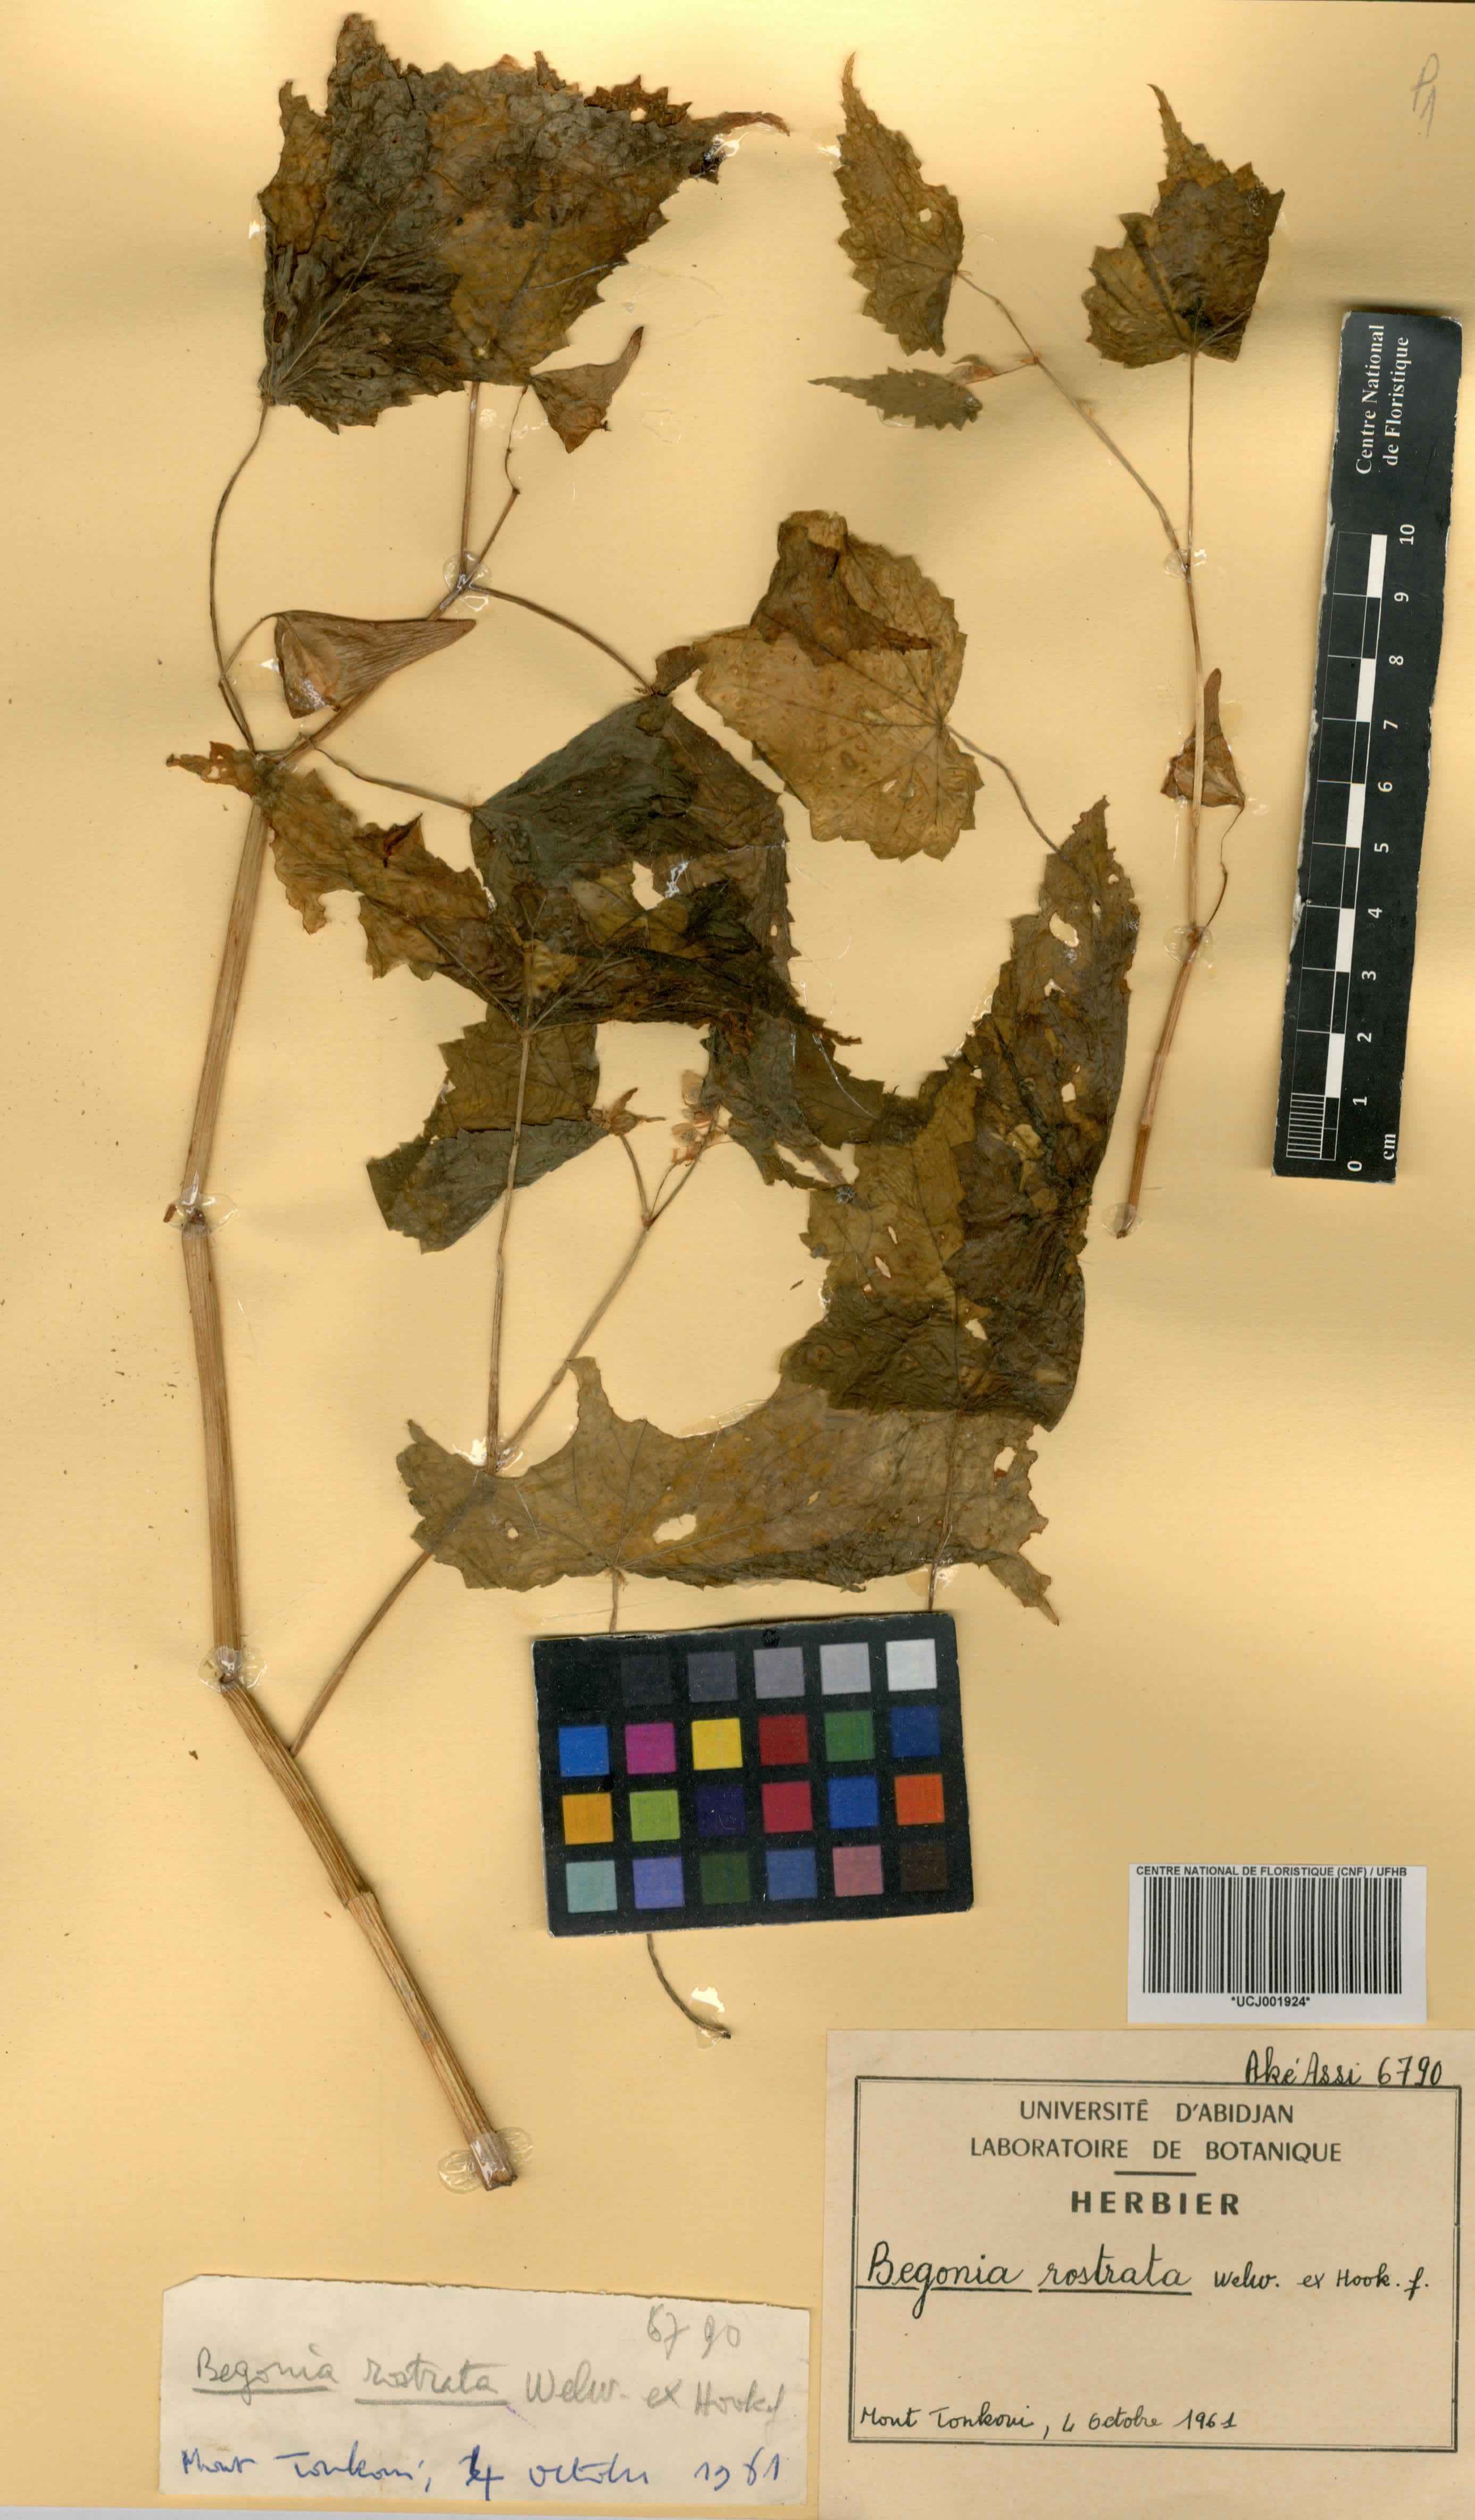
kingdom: Plantae
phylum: Tracheophyta
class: Magnoliopsida
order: Cucurbitales
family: Begoniaceae
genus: Begonia
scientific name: Begonia rostrata
